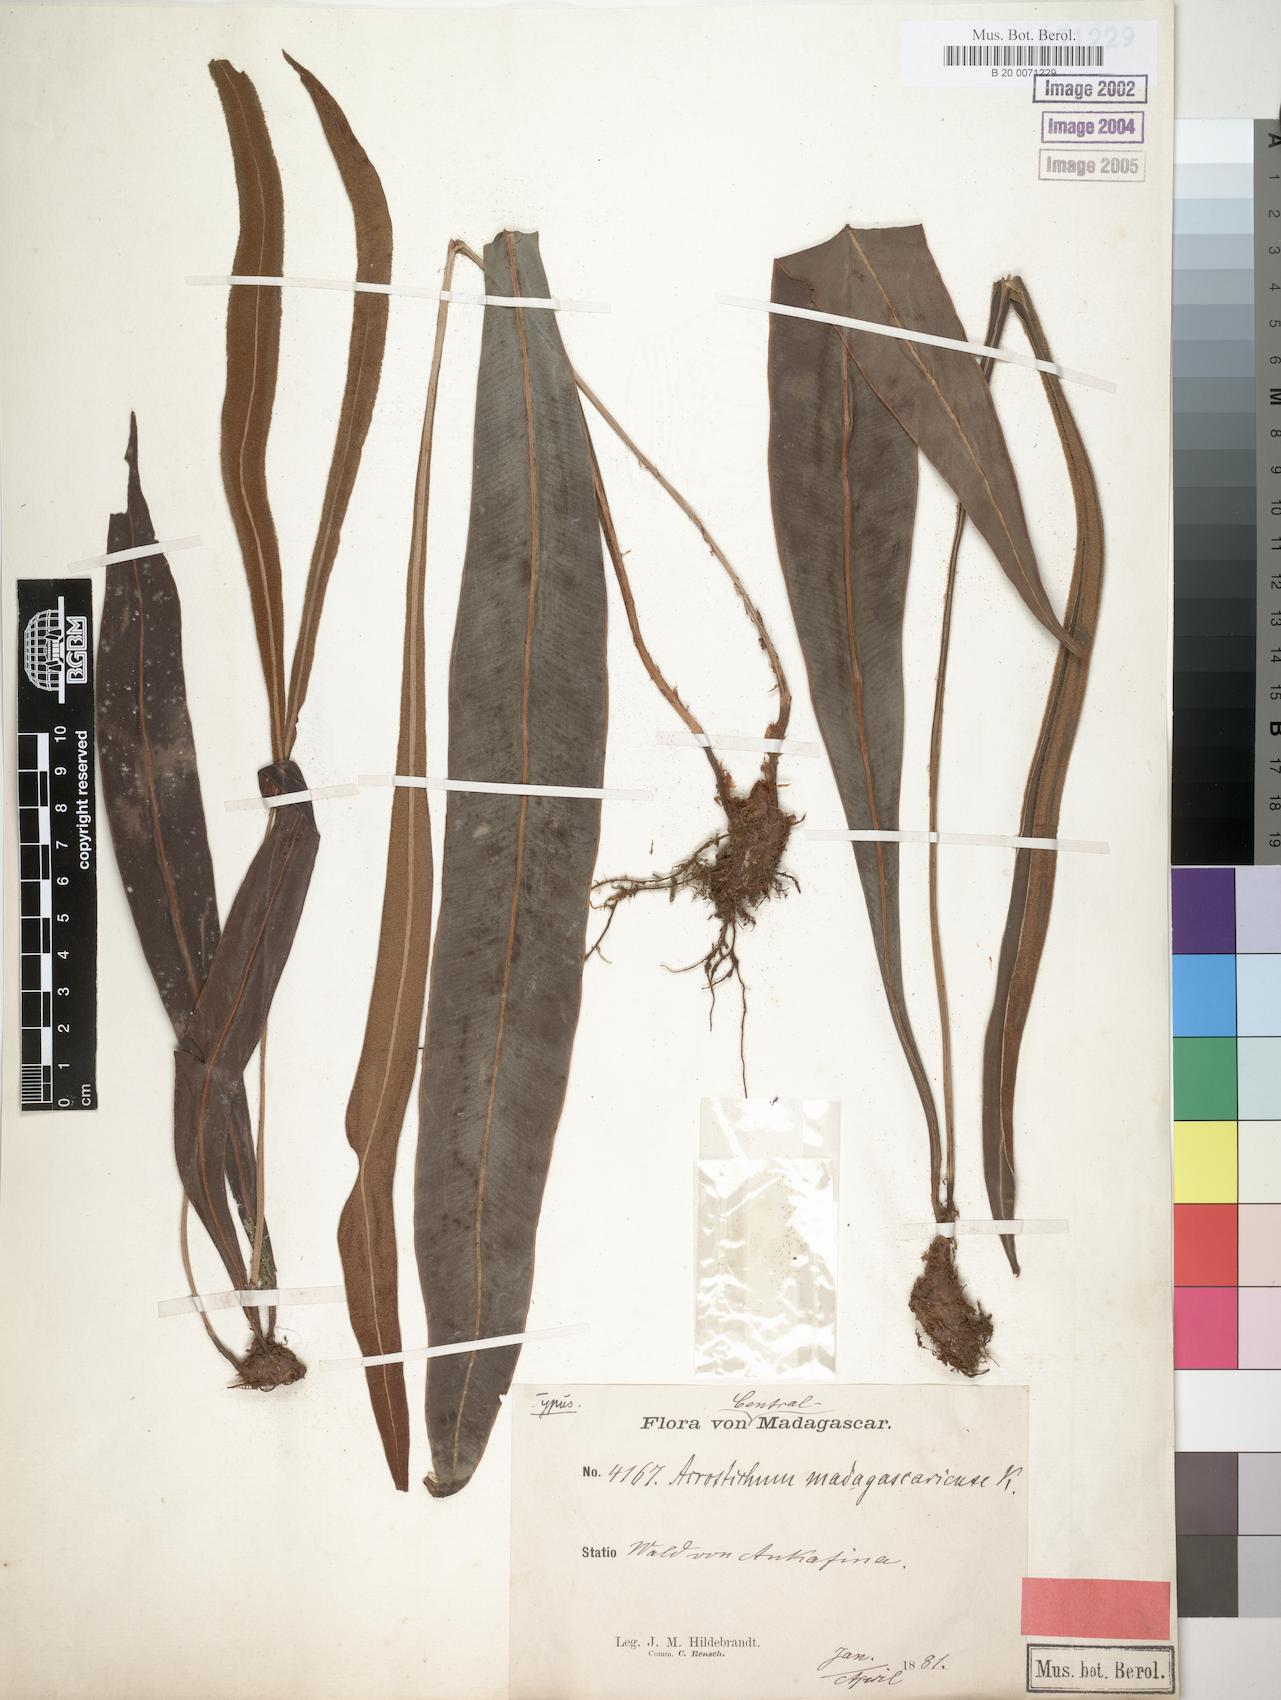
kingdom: Plantae
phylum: Tracheophyta
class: Polypodiopsida
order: Polypodiales
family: Dryopteridaceae
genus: Elaphoglossum
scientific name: Elaphoglossum subsessile
